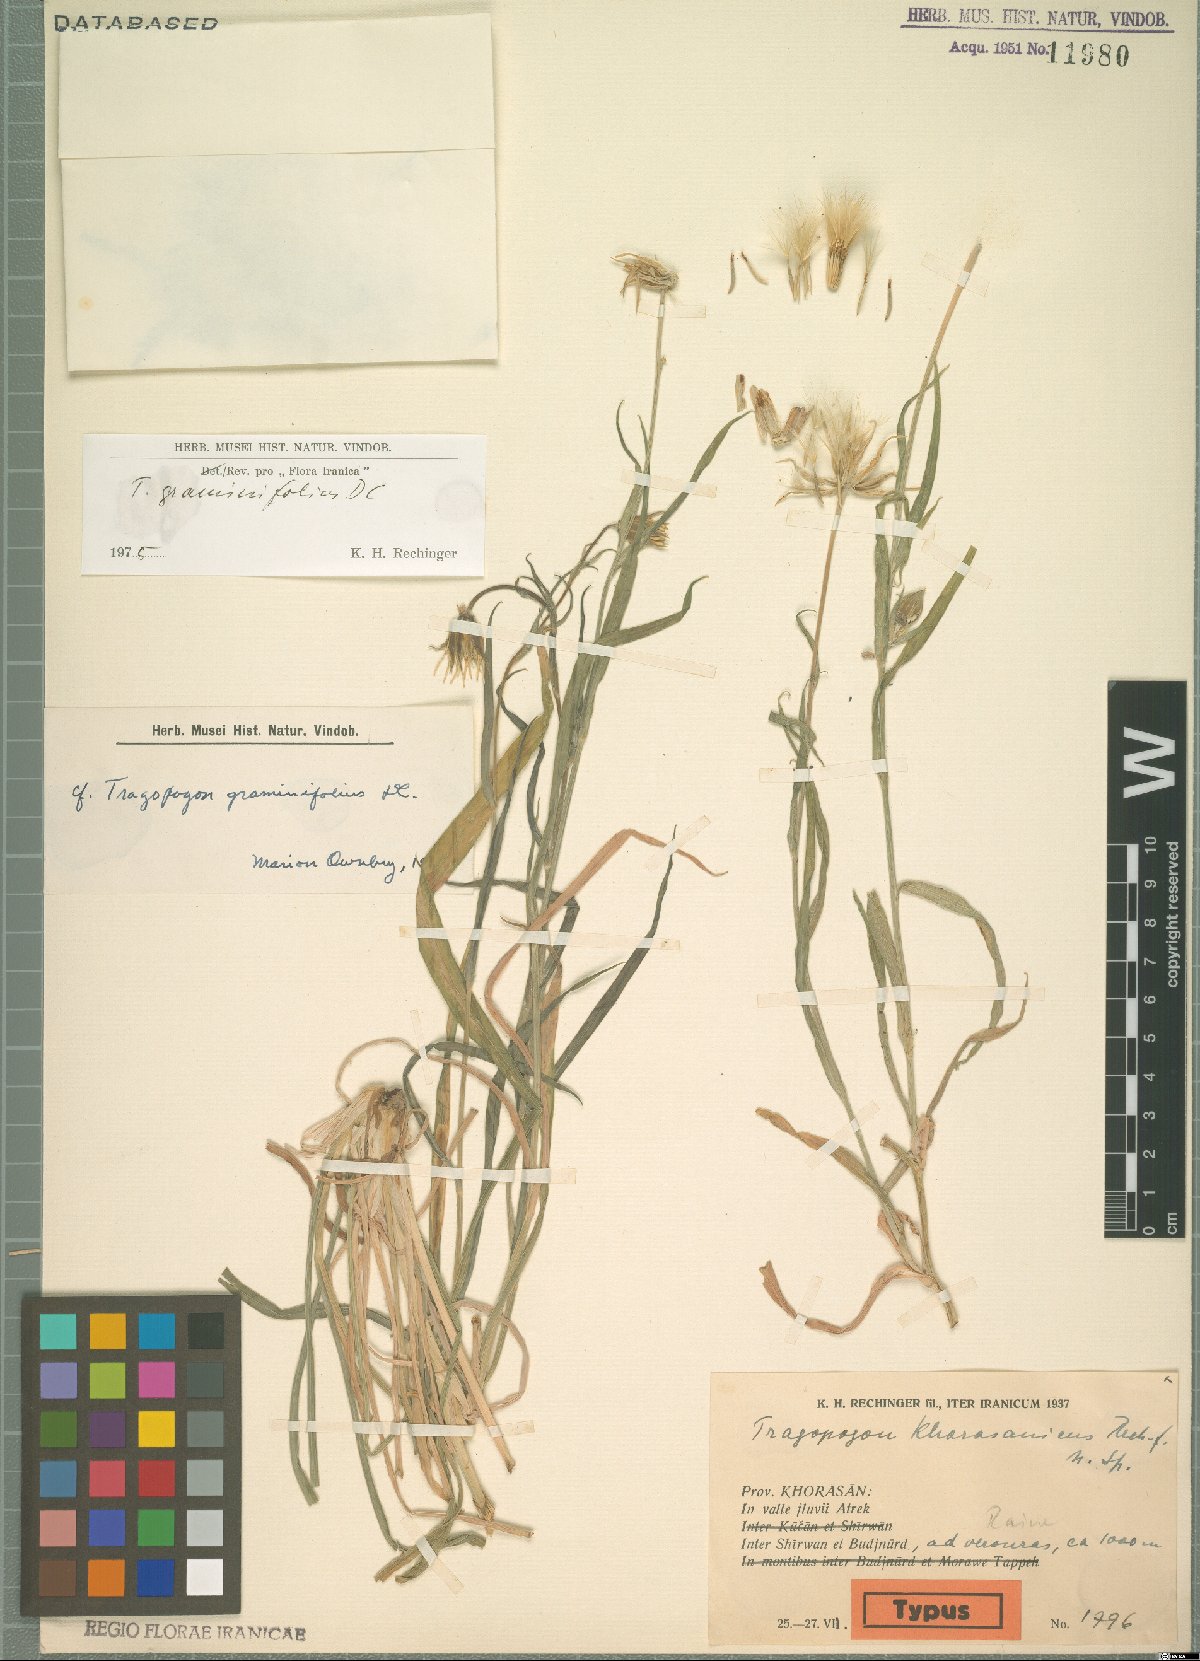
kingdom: Plantae
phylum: Tracheophyta
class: Magnoliopsida
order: Asterales
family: Asteraceae
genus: Tragopogon
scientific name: Tragopogon graminifolius
